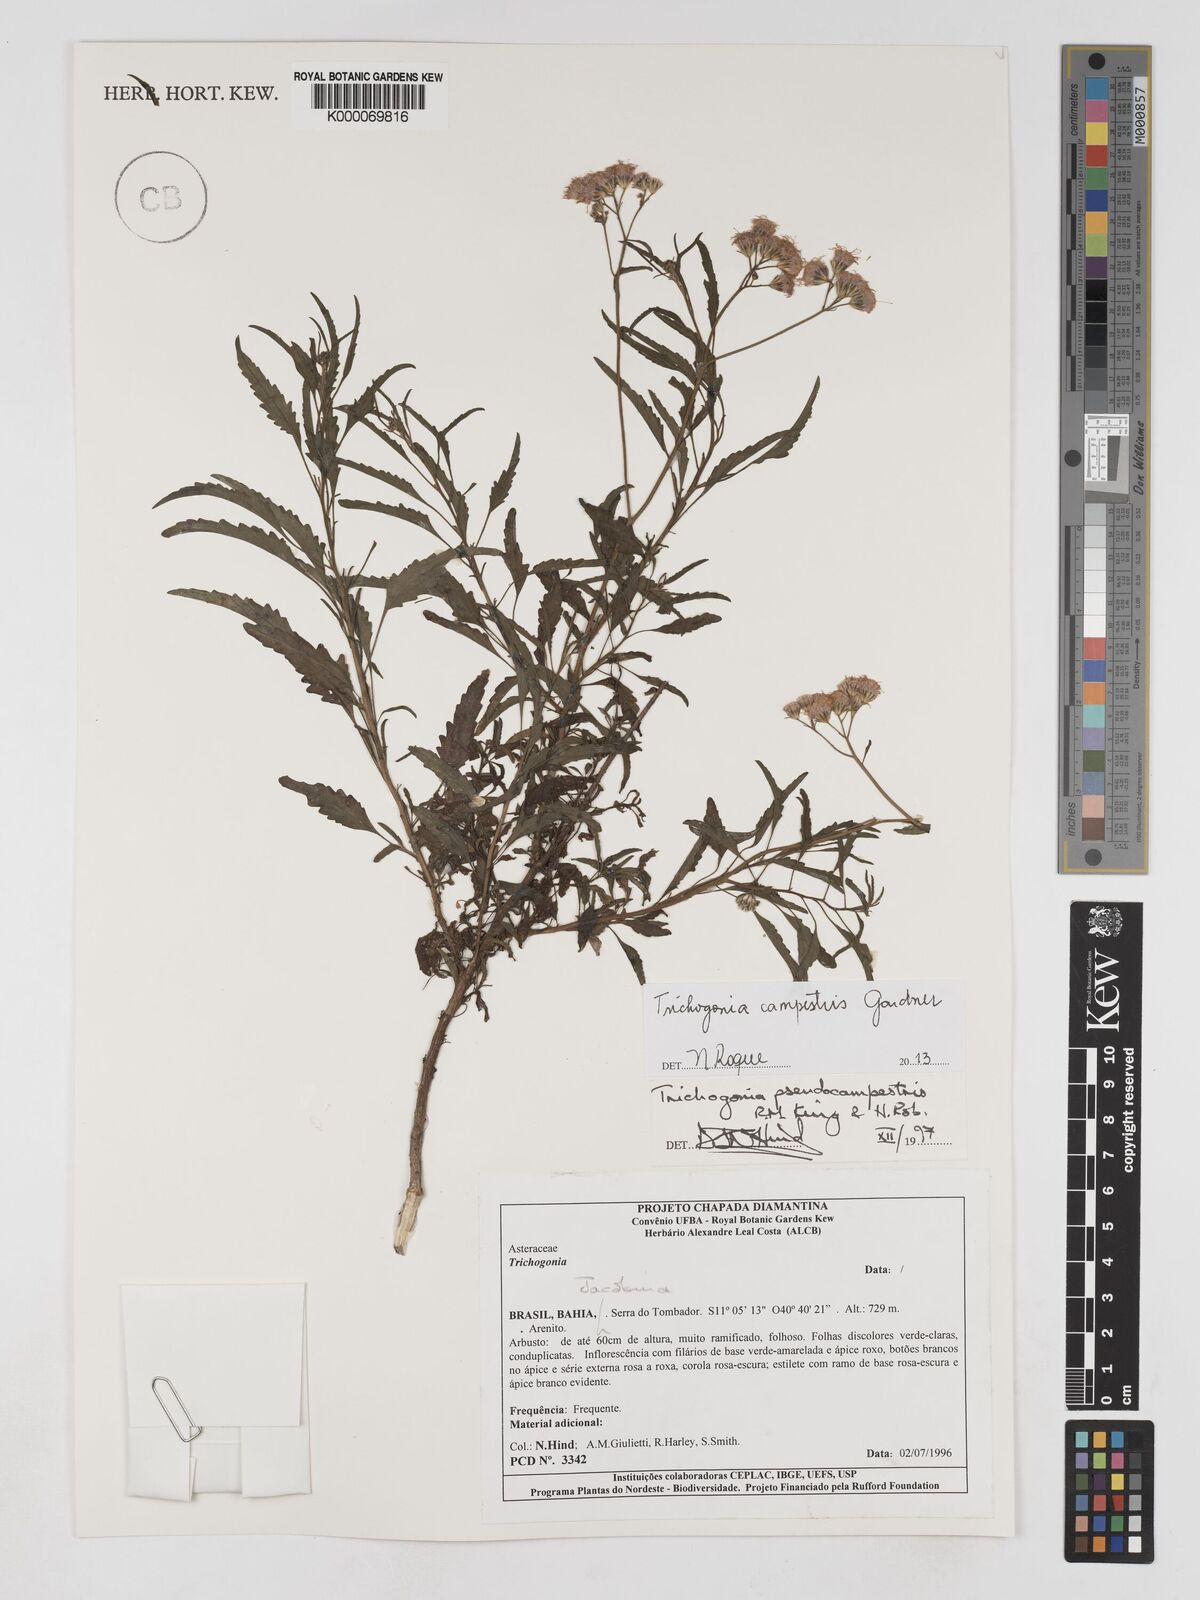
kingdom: Plantae
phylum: Tracheophyta
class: Magnoliopsida
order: Asterales
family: Asteraceae
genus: Trichogonia
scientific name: Trichogonia campestris
